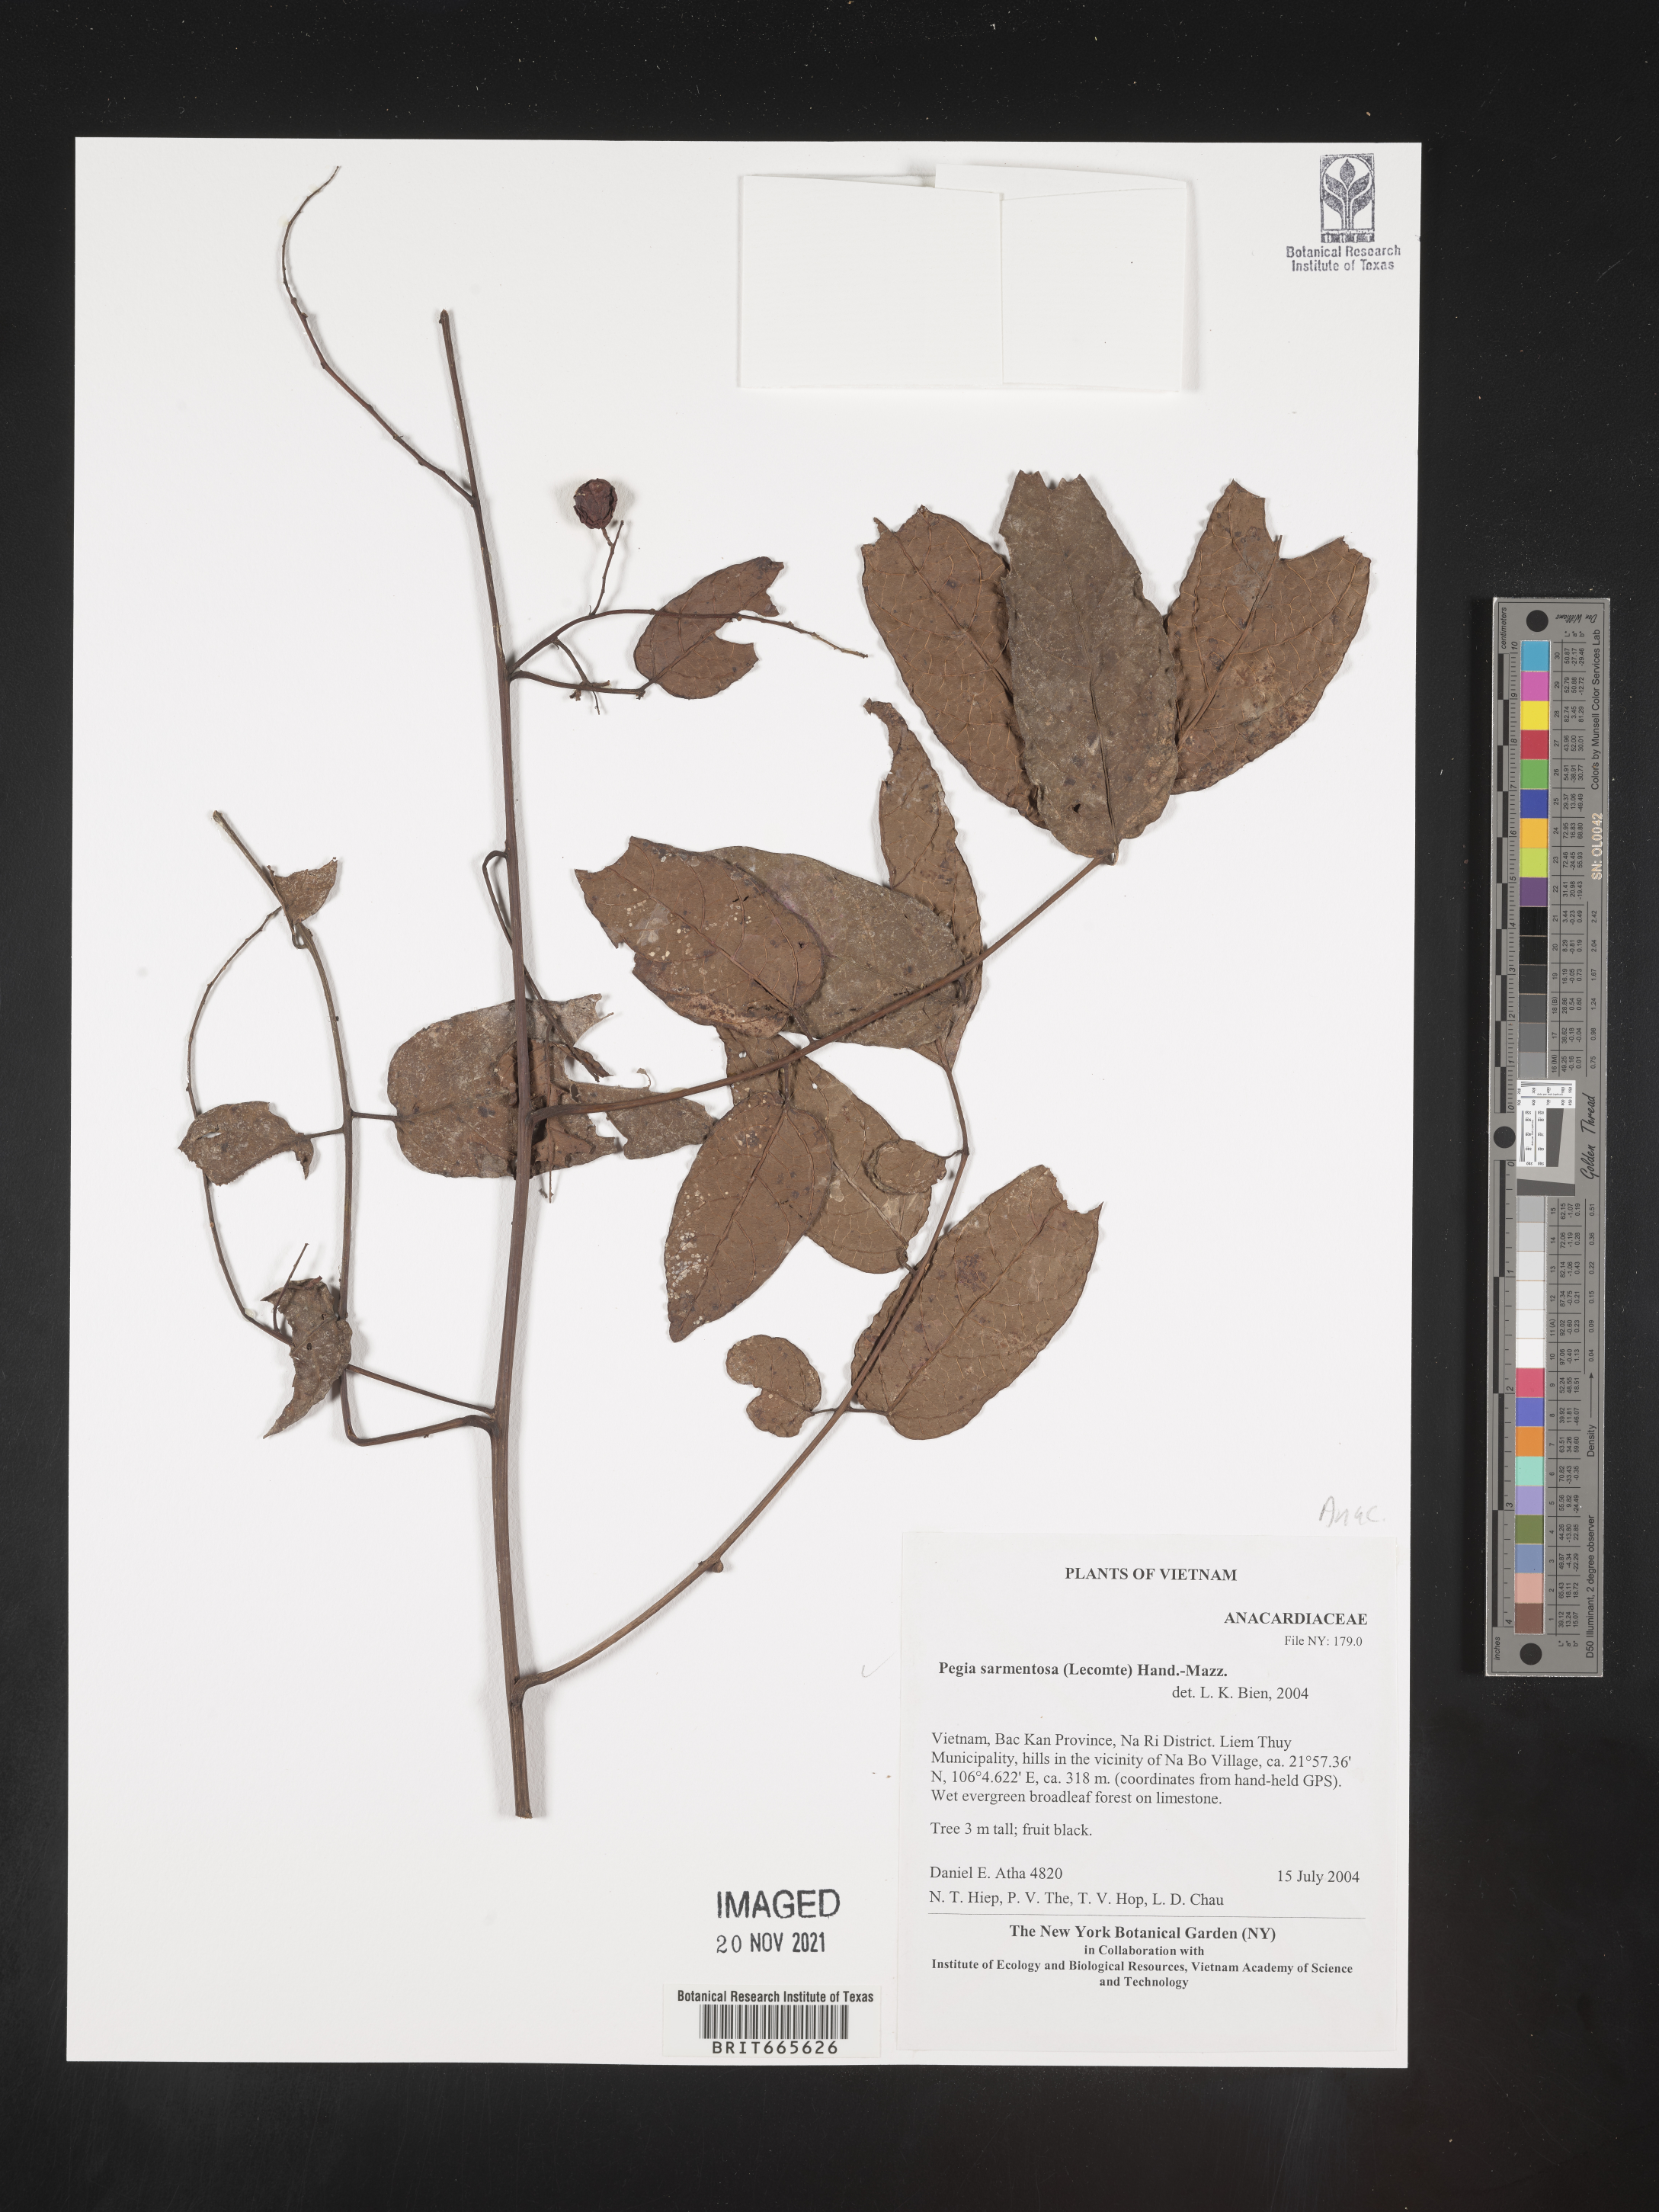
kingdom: Plantae
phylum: Tracheophyta
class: Magnoliopsida
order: Sapindales
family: Anacardiaceae
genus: Pegia
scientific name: Pegia sarmentosa
